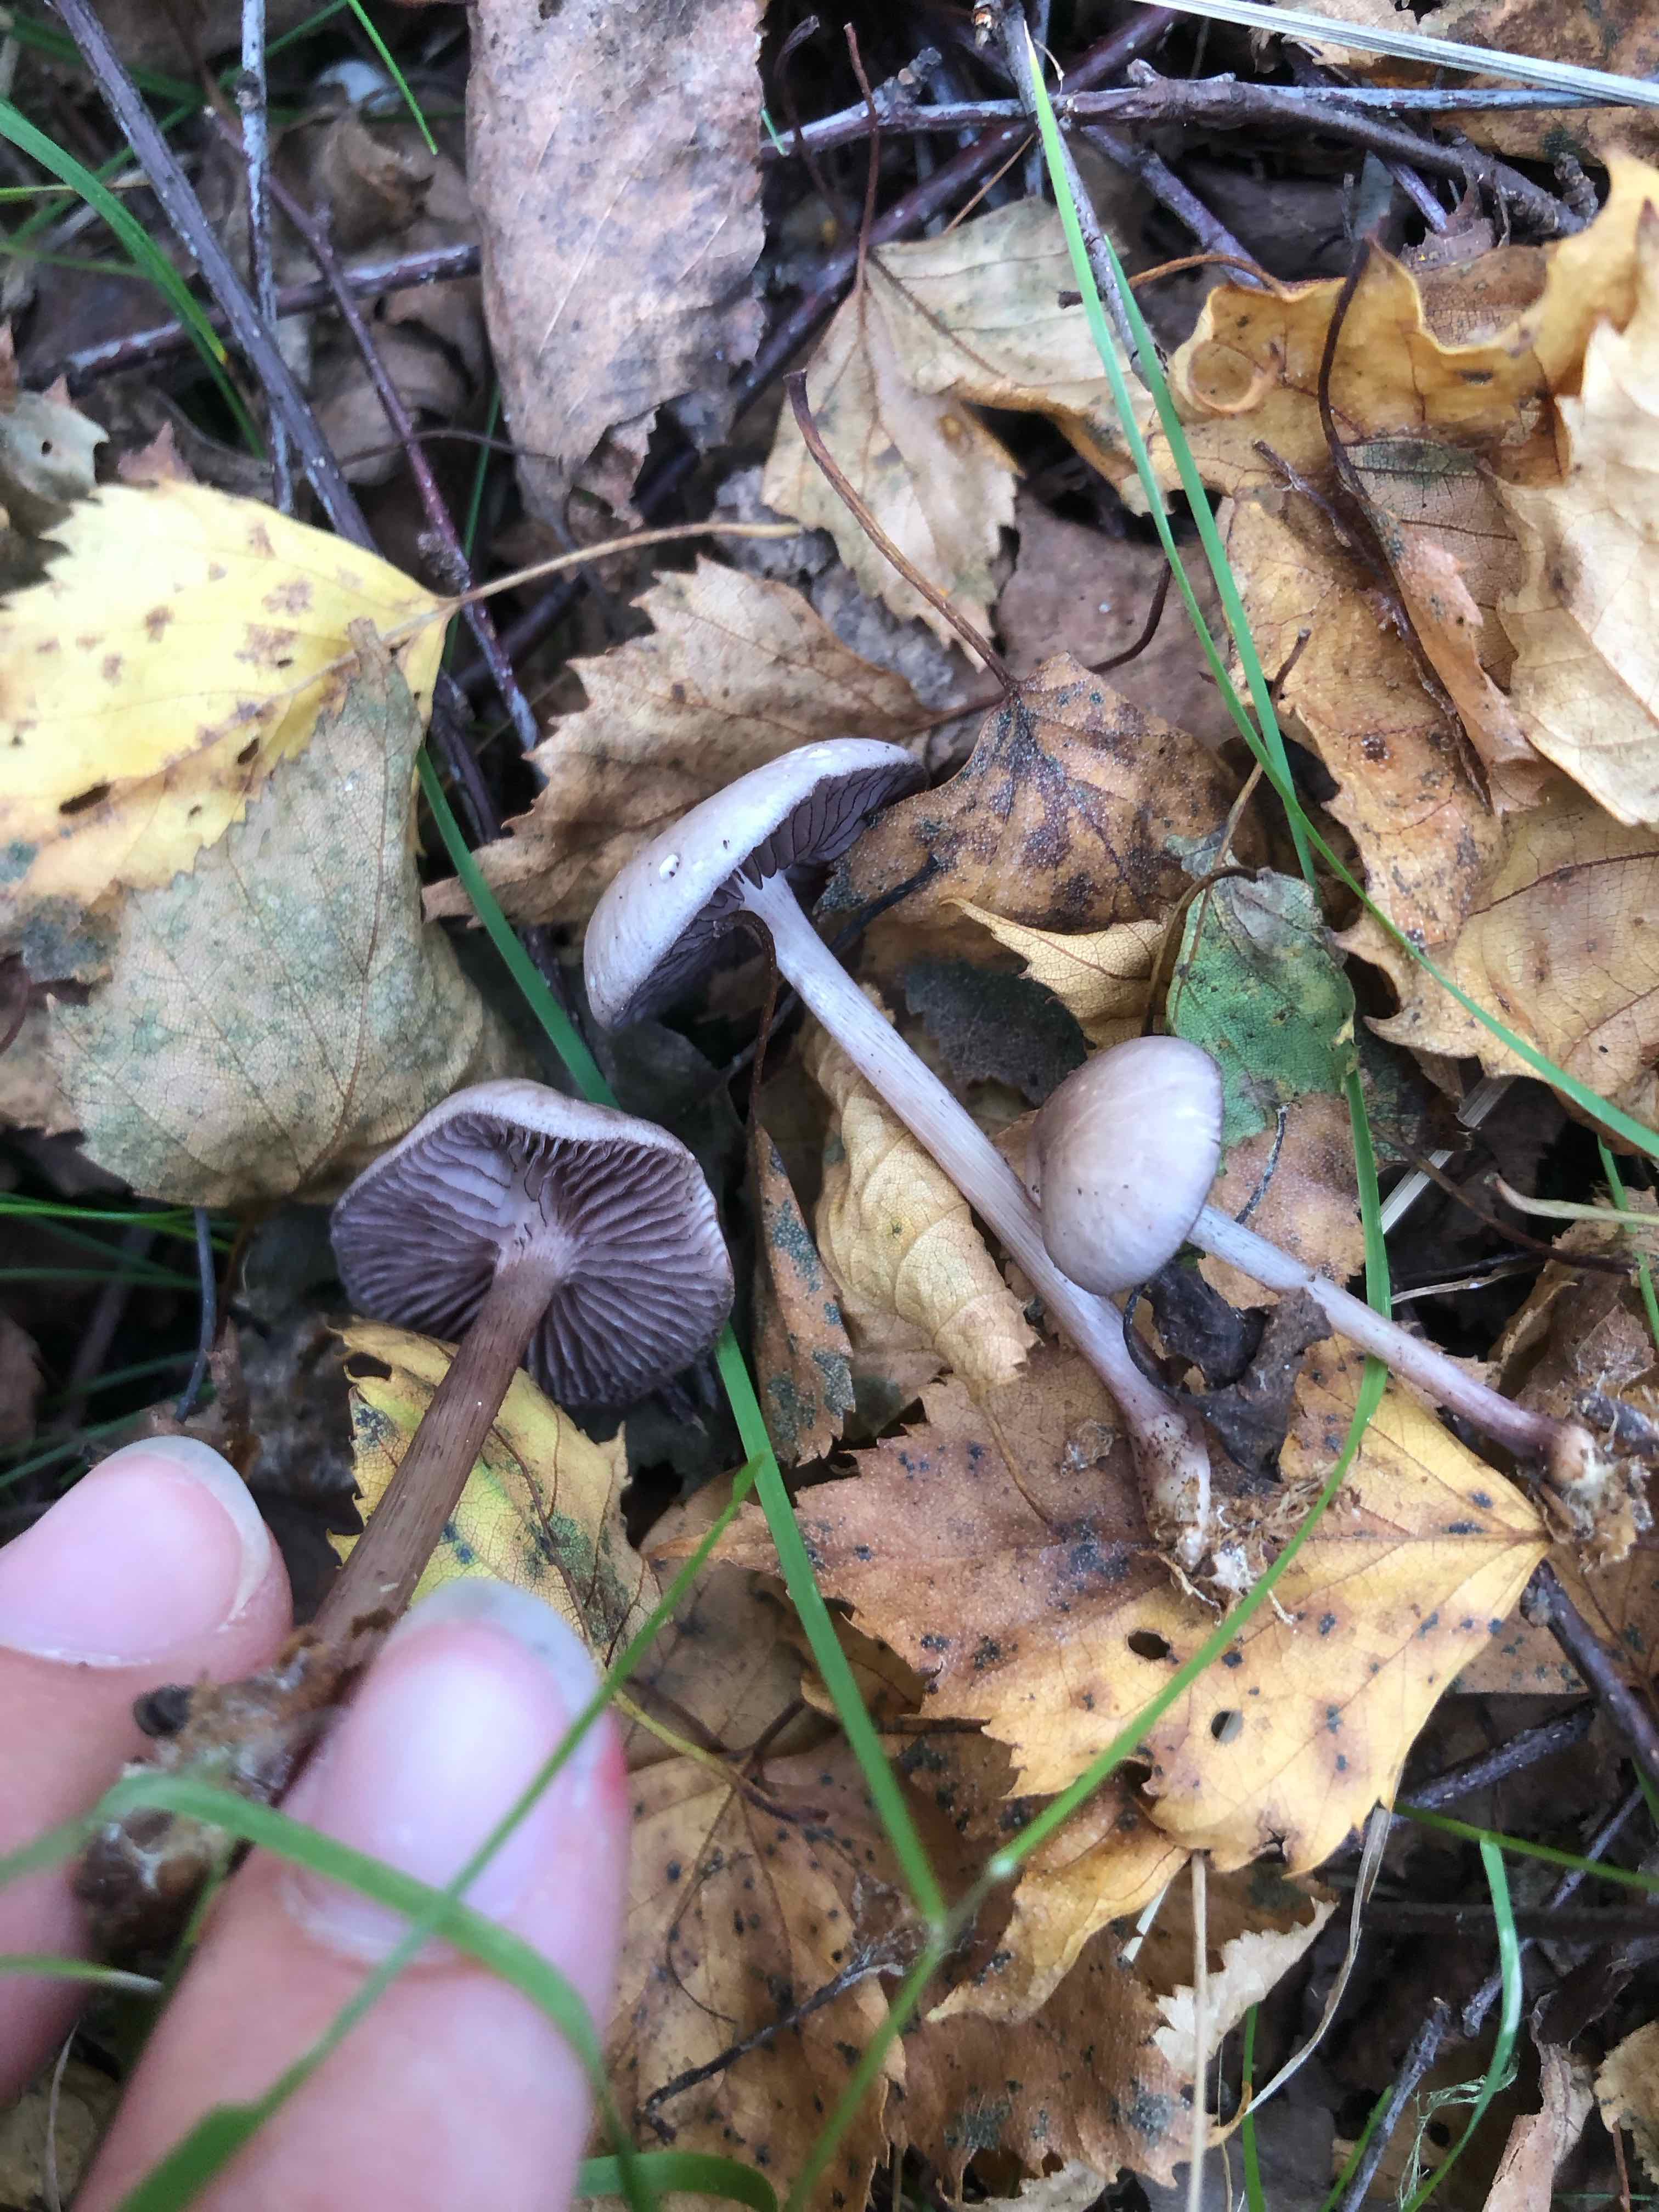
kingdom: Fungi
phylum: Basidiomycota
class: Agaricomycetes
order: Agaricales
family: Mycenaceae
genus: Mycena
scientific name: Mycena pelianthina
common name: mørkbladet huesvamp
